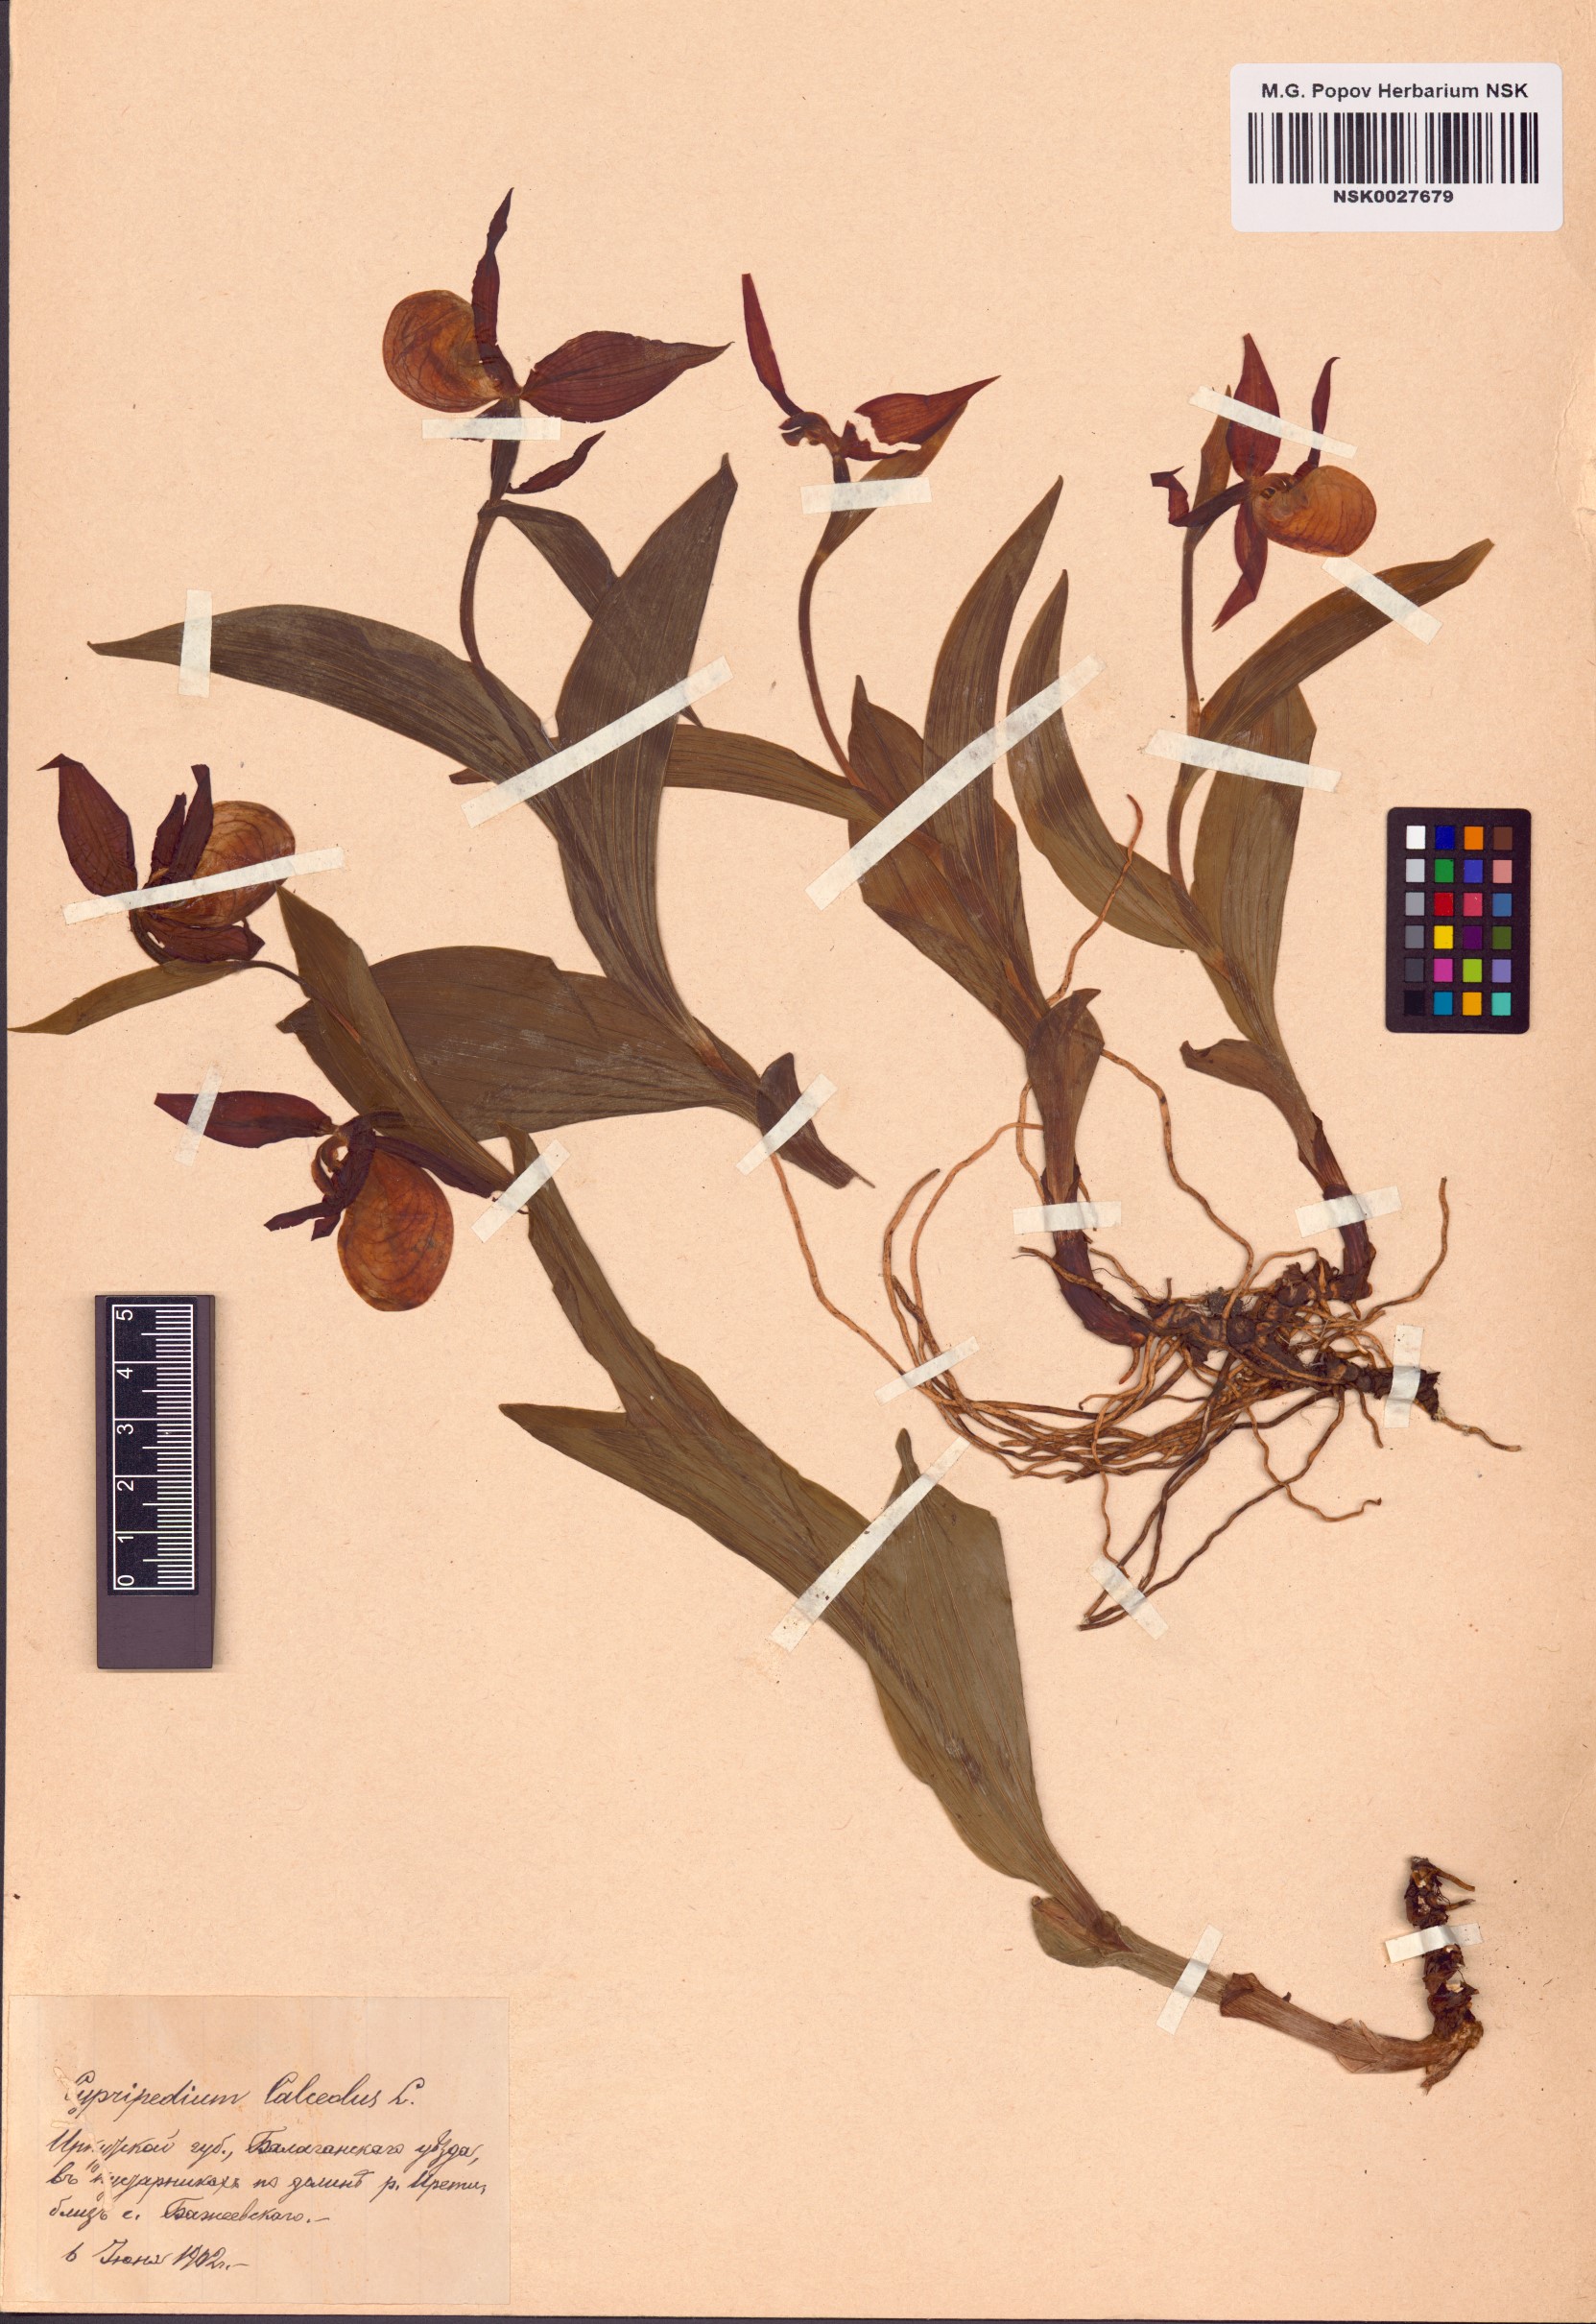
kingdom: Plantae
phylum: Tracheophyta
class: Liliopsida
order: Asparagales
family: Orchidaceae
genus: Cypripedium
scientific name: Cypripedium calceolus
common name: Lady's-slipper
